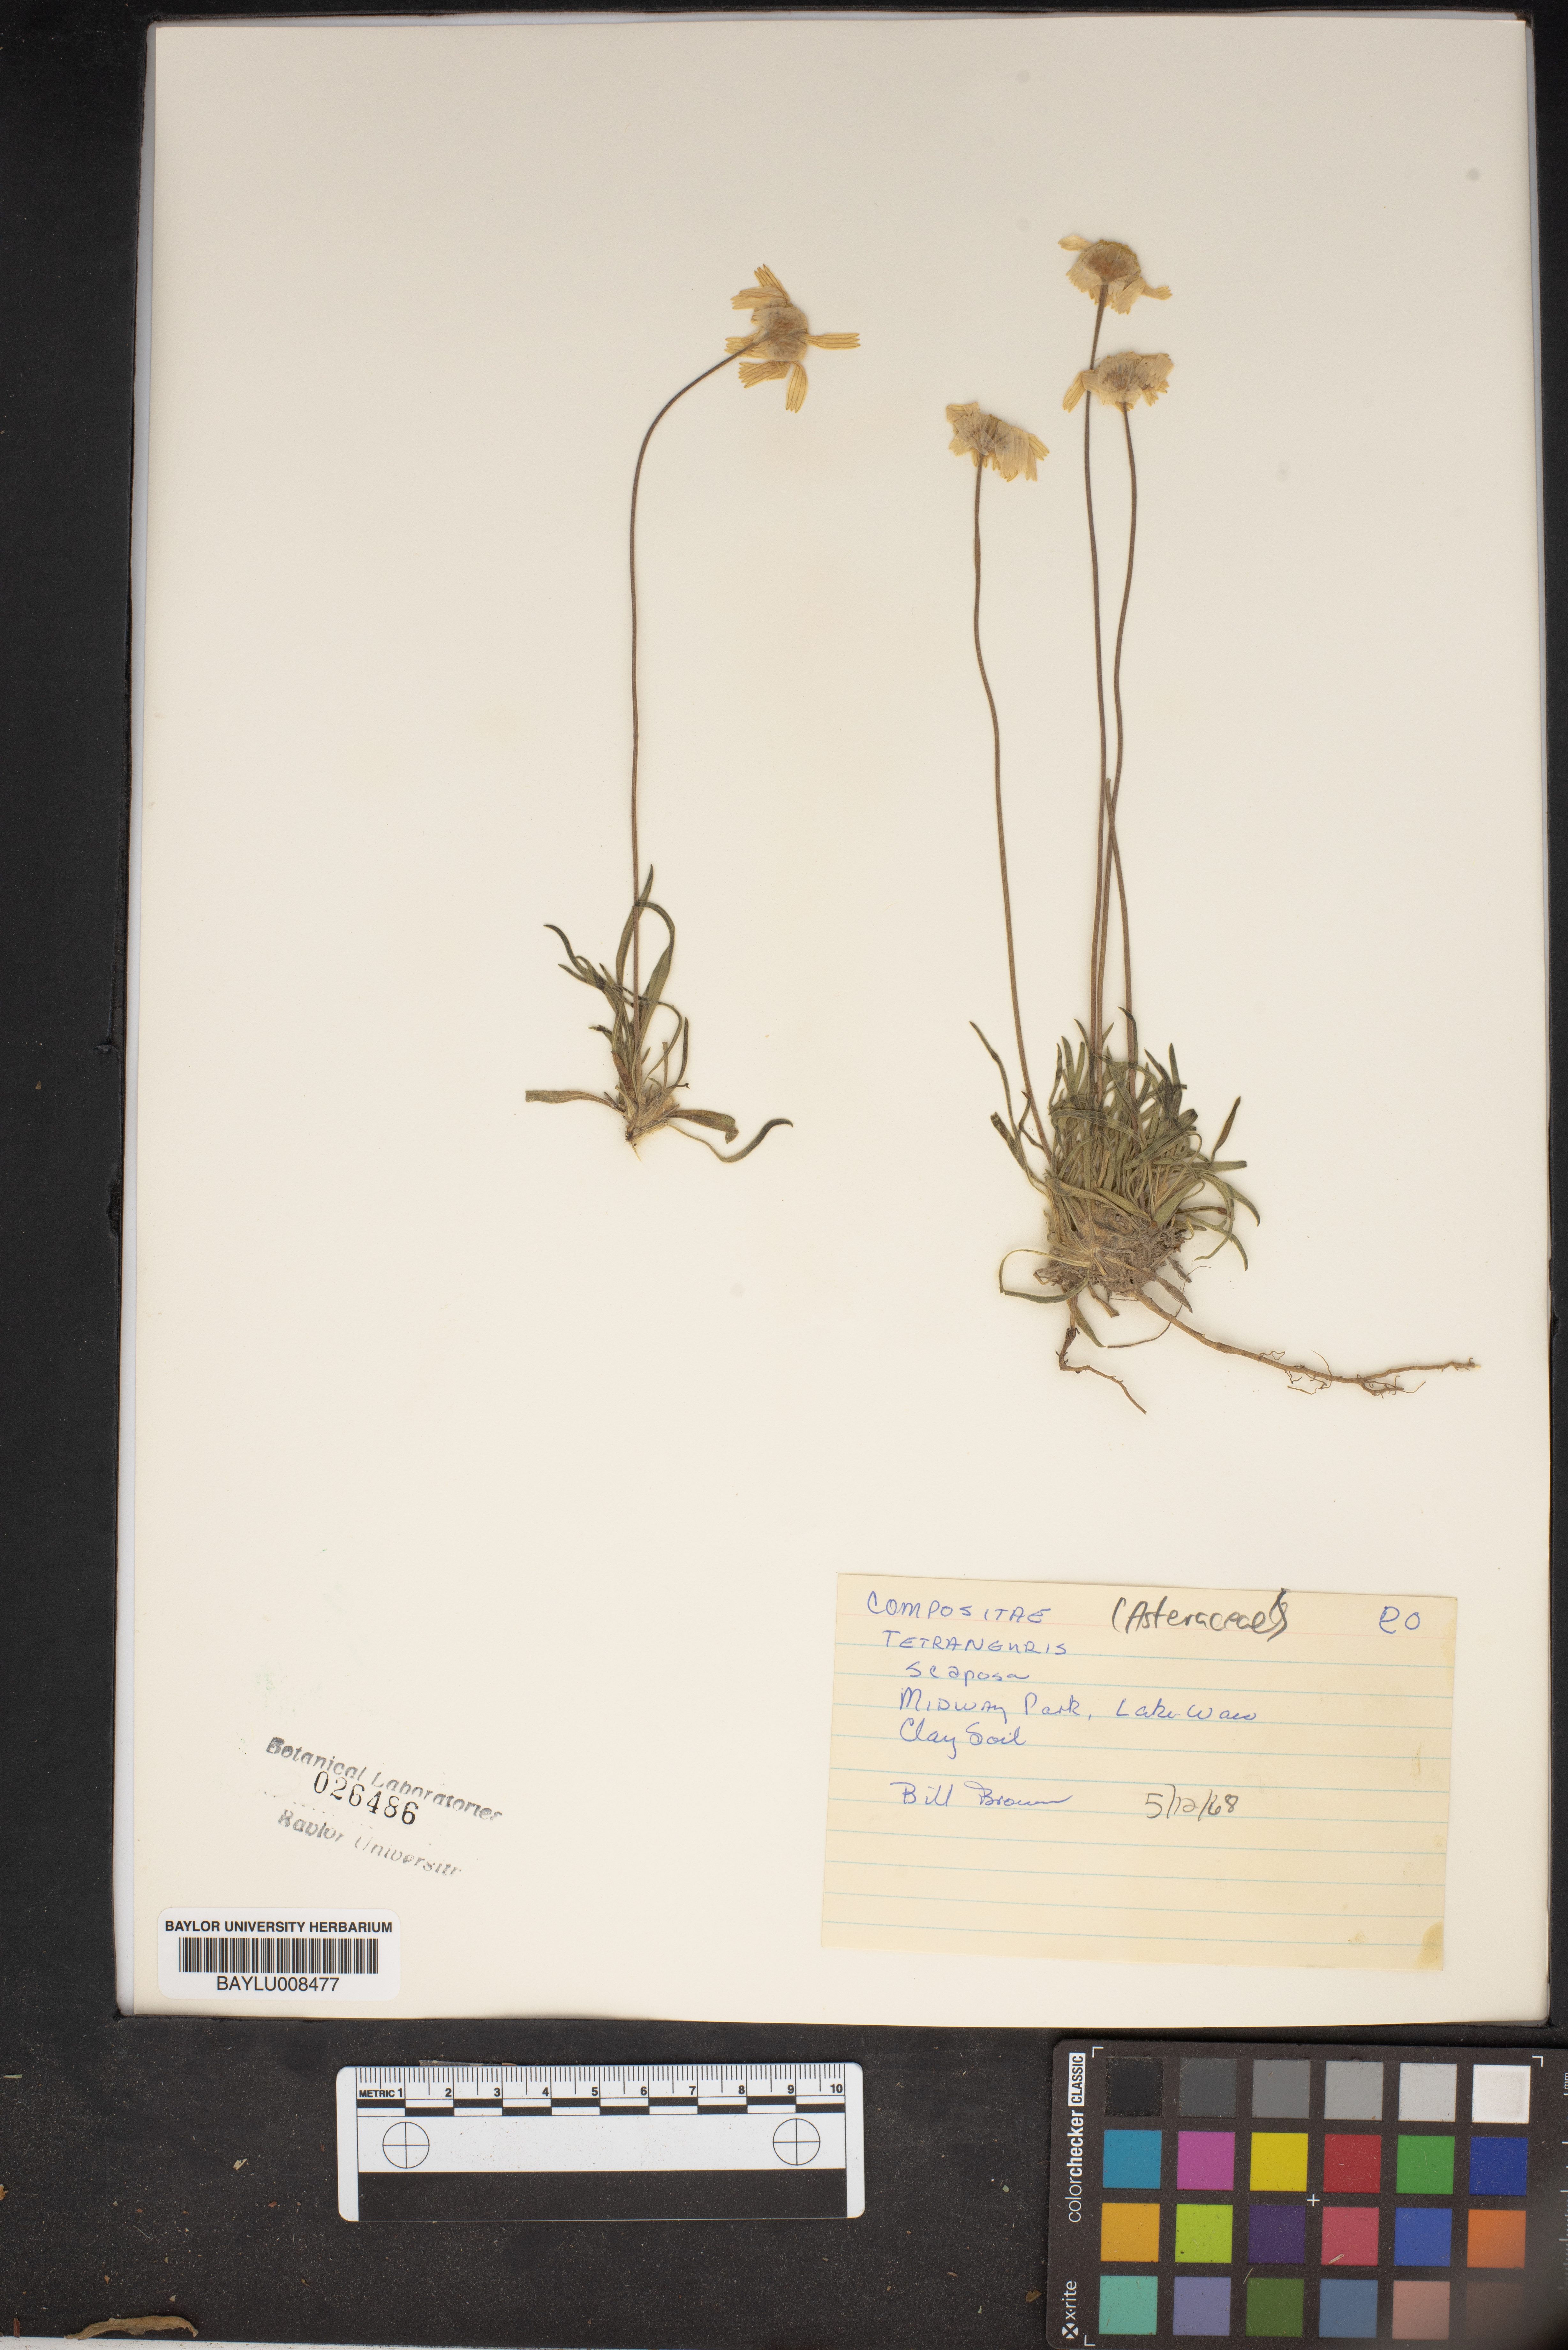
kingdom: Plantae
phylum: Tracheophyta
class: Magnoliopsida
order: Asterales
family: Asteraceae
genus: Tetraneuris
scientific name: Tetraneuris scaposa
